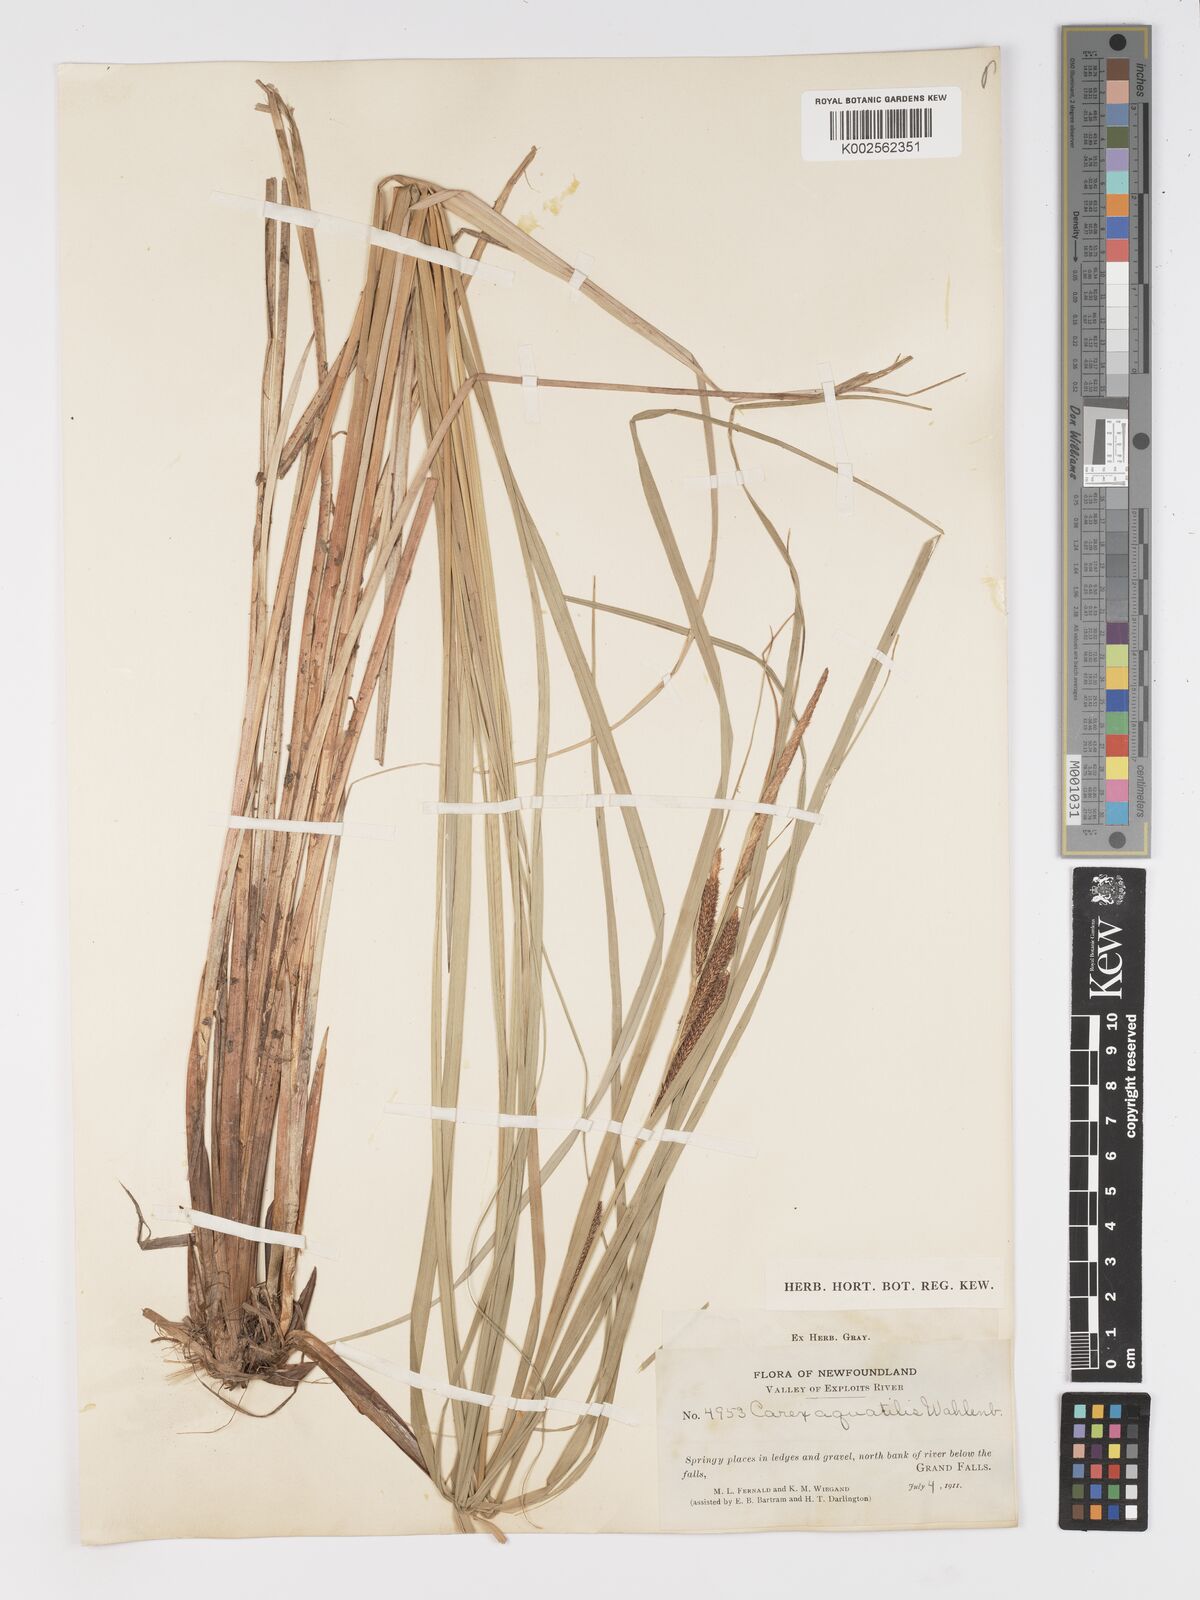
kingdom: Plantae
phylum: Tracheophyta
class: Liliopsida
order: Poales
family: Cyperaceae
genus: Carex
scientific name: Carex aquatilis
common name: Water sedge
